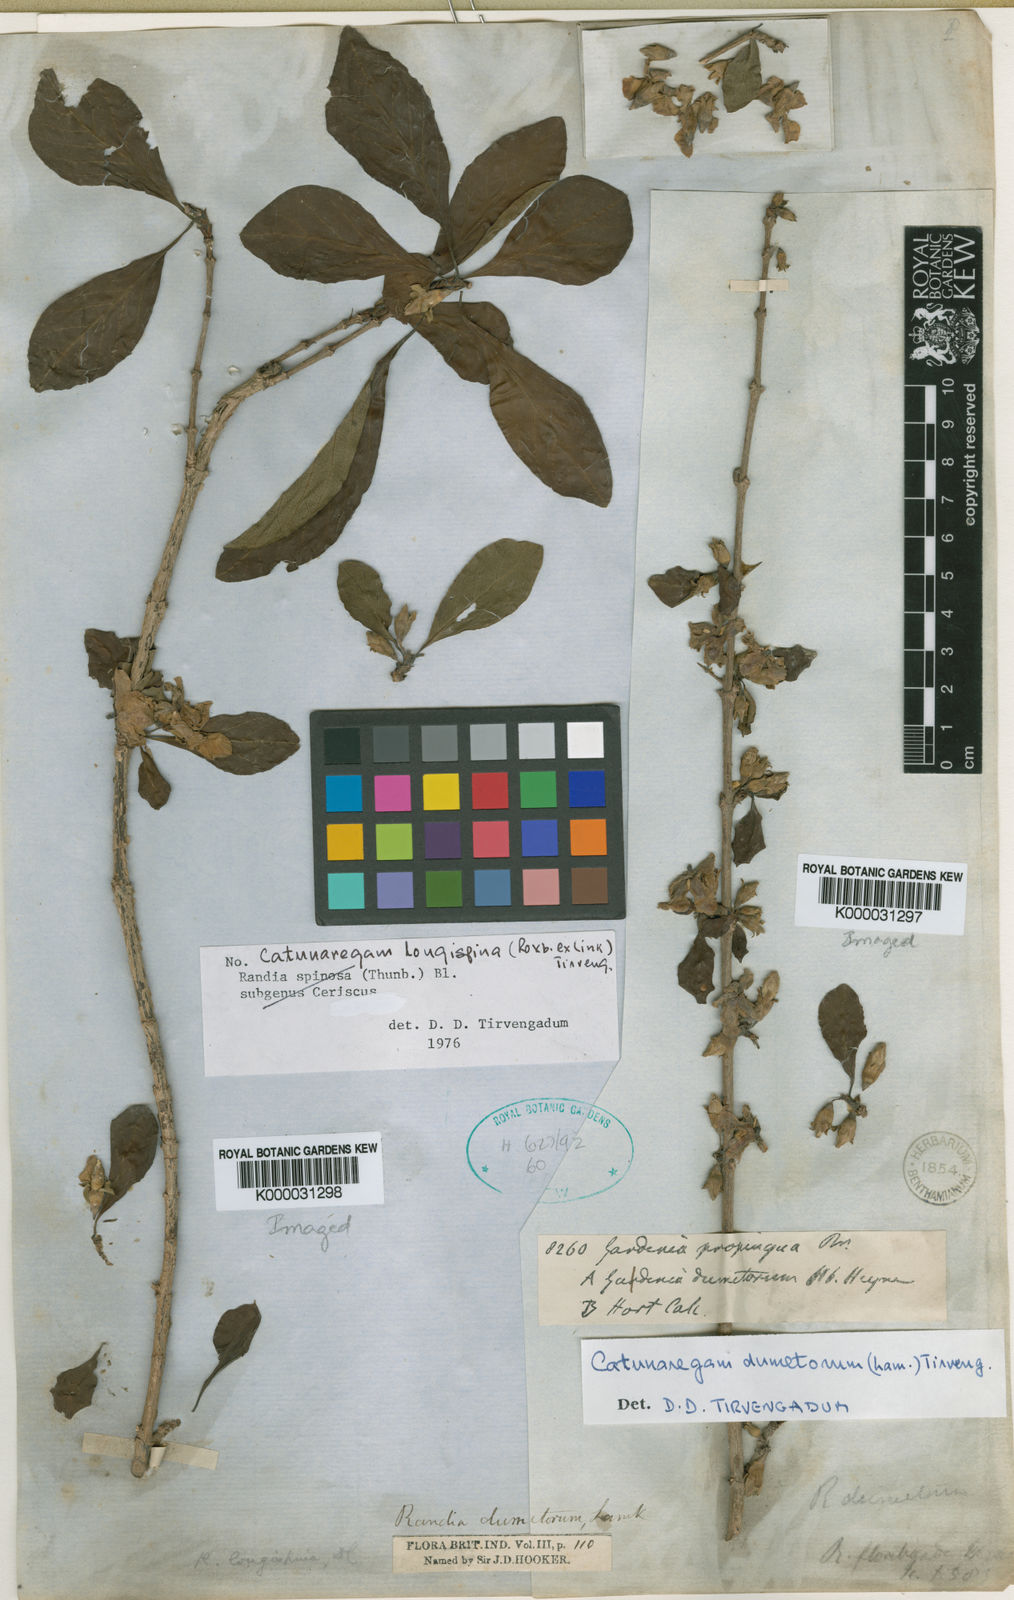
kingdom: Plantae
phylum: Tracheophyta
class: Magnoliopsida
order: Gentianales
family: Rubiaceae
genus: Catunaregam
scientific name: Catunaregam longispina
